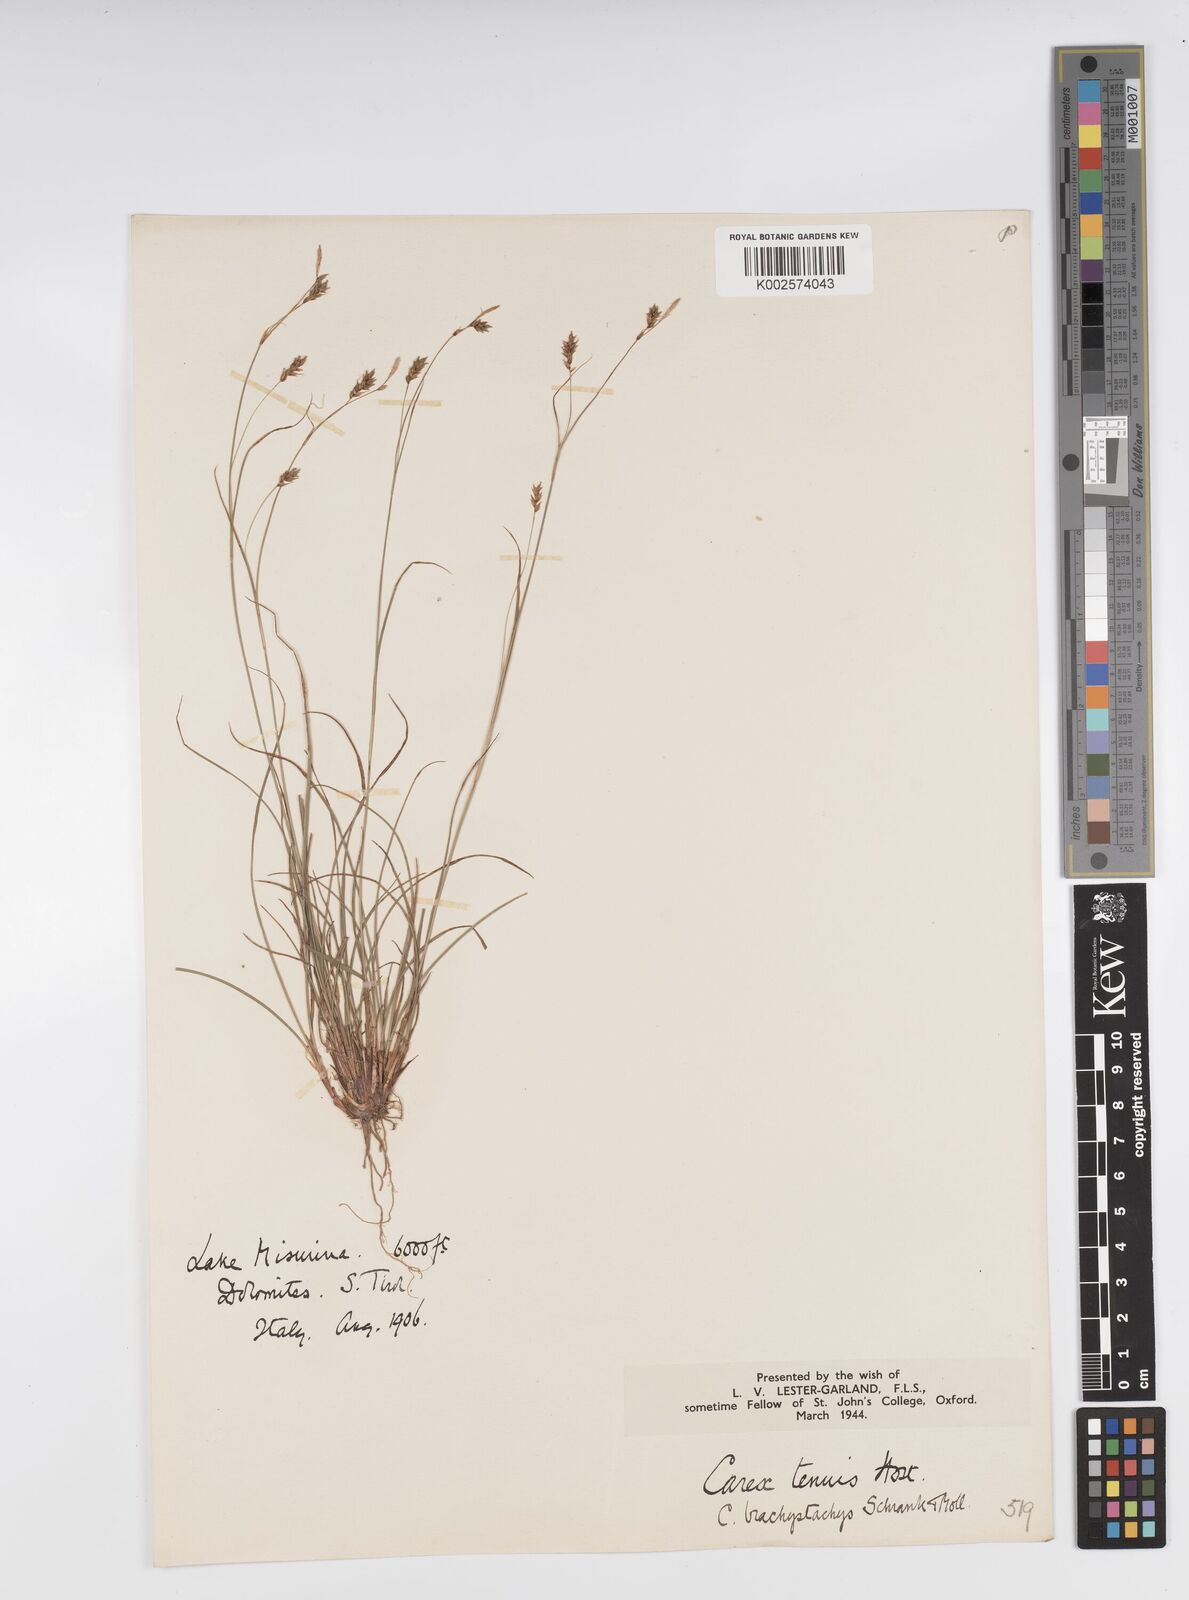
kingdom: Plantae
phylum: Tracheophyta
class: Liliopsida
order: Poales
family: Cyperaceae
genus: Carex
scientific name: Carex brachystachys
